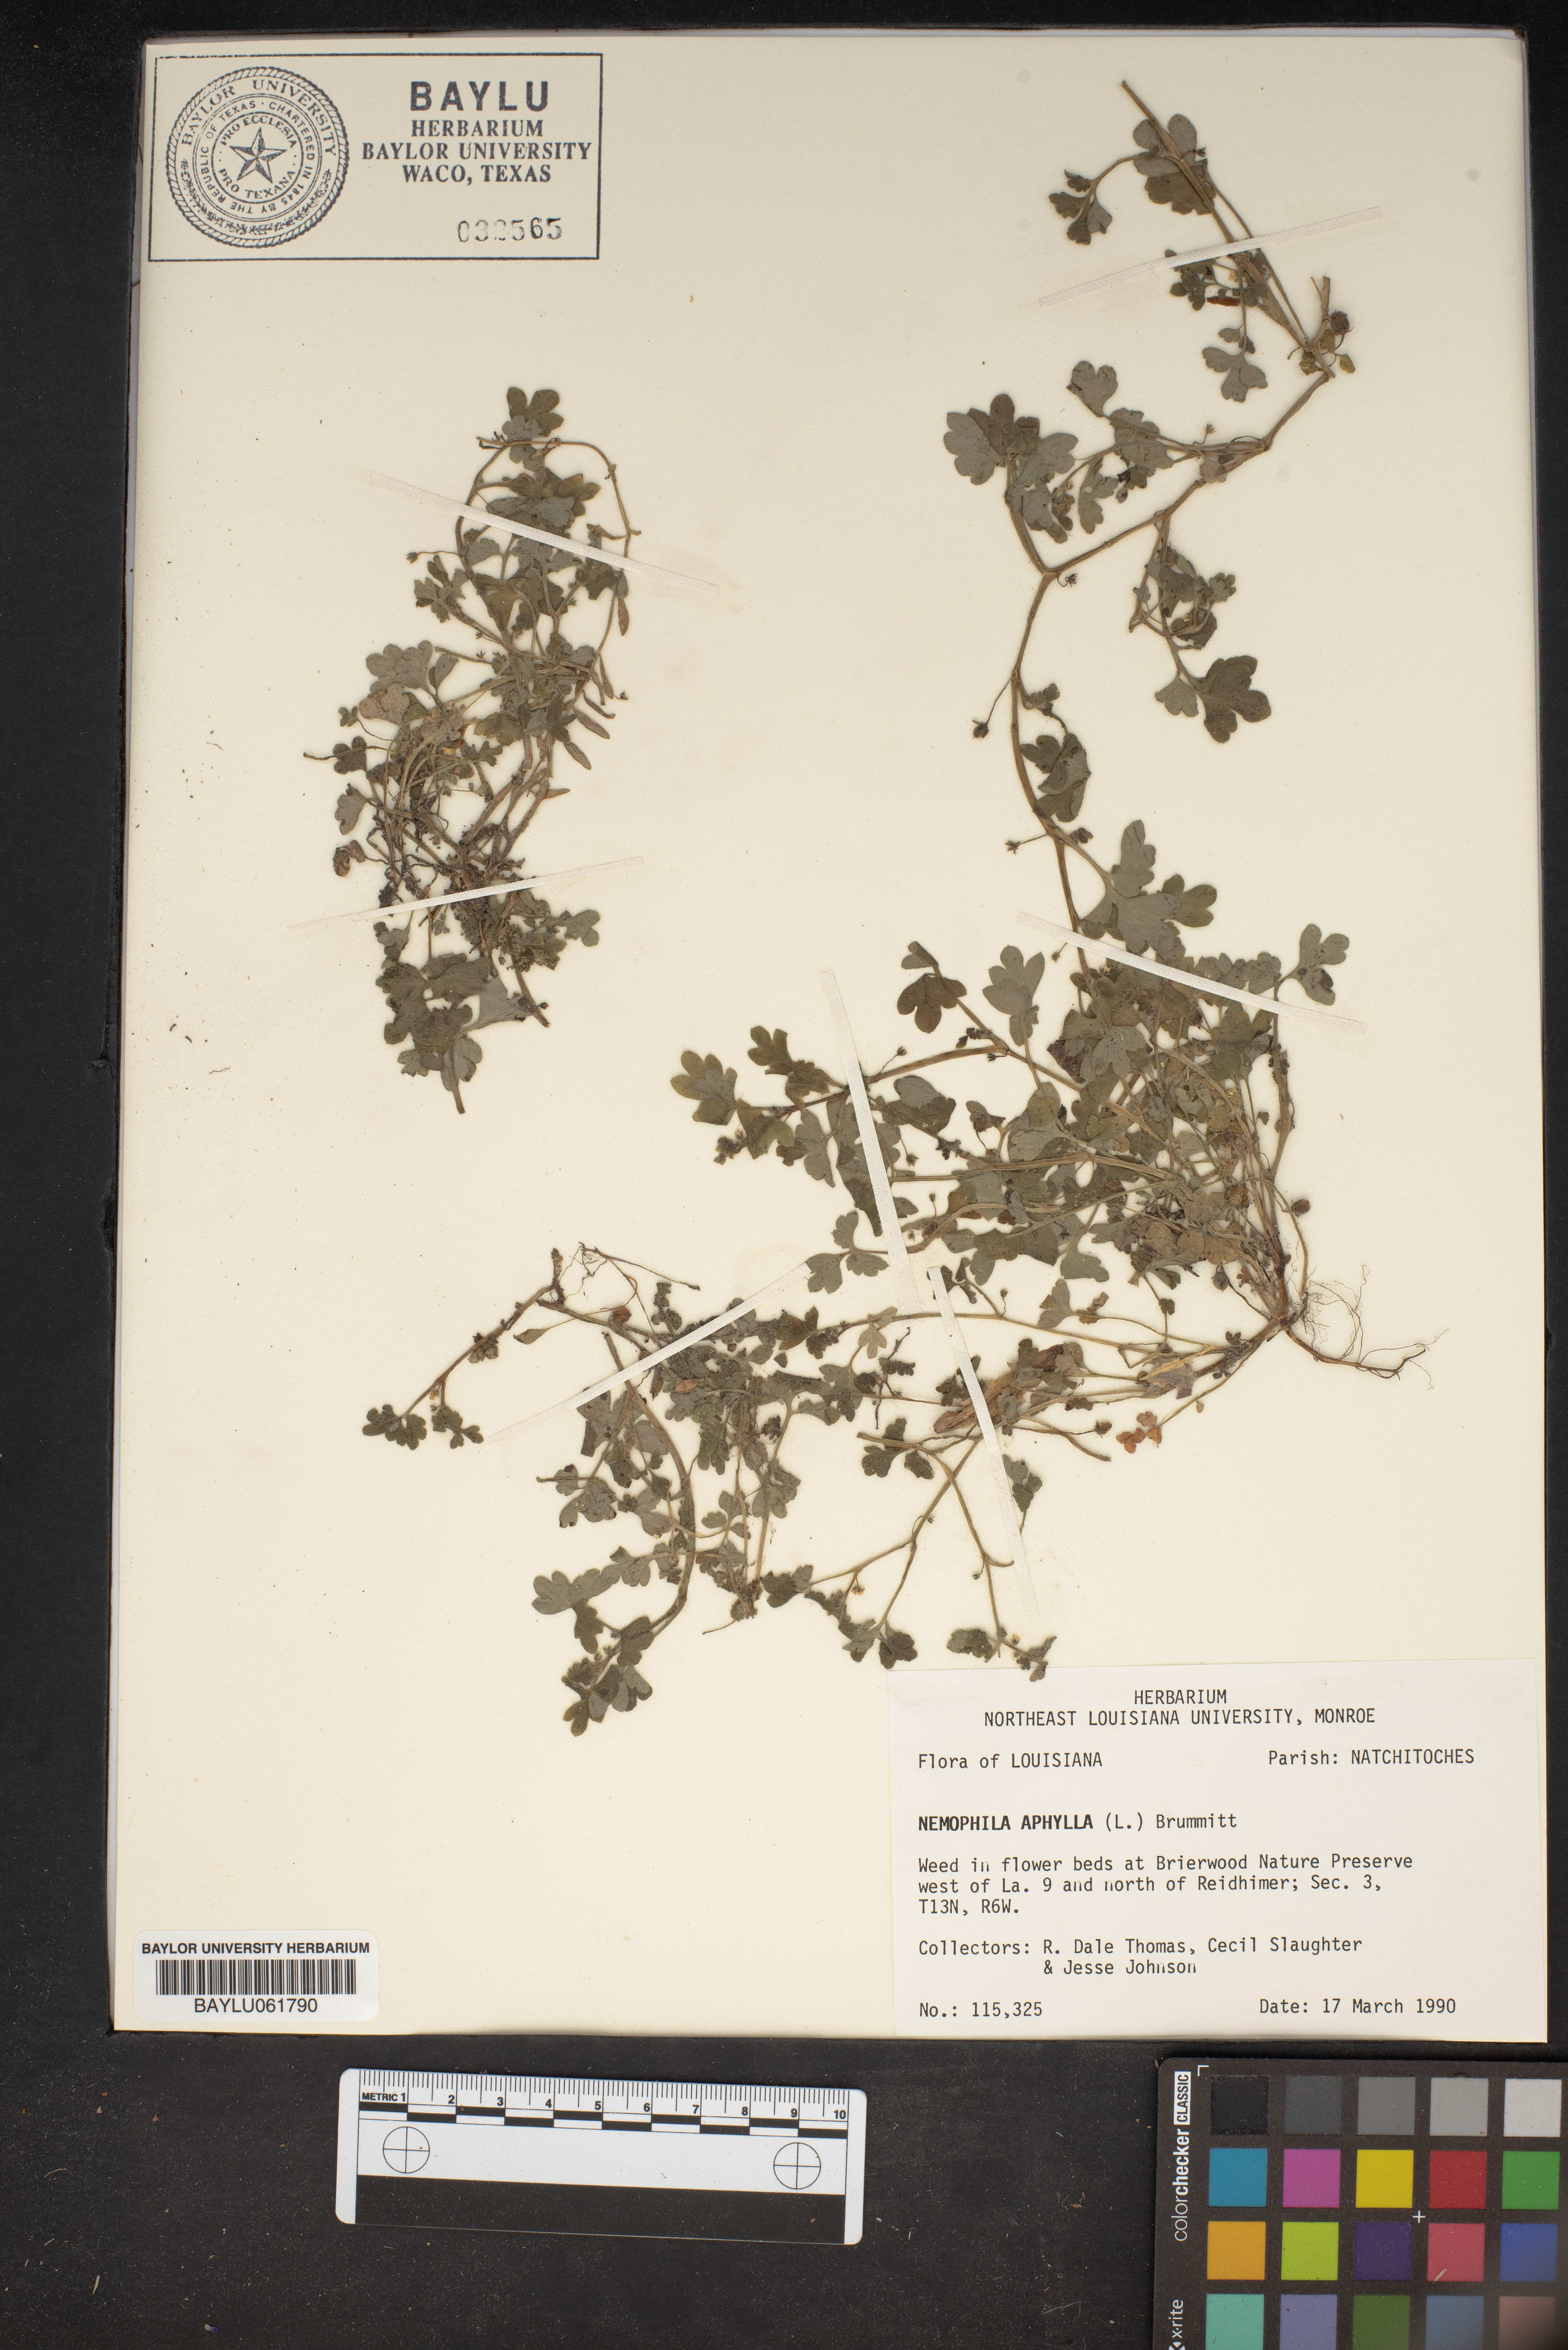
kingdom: Plantae
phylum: Tracheophyta
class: Magnoliopsida
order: Boraginales
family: Hydrophyllaceae
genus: Nemophila
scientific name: Nemophila aphylla
